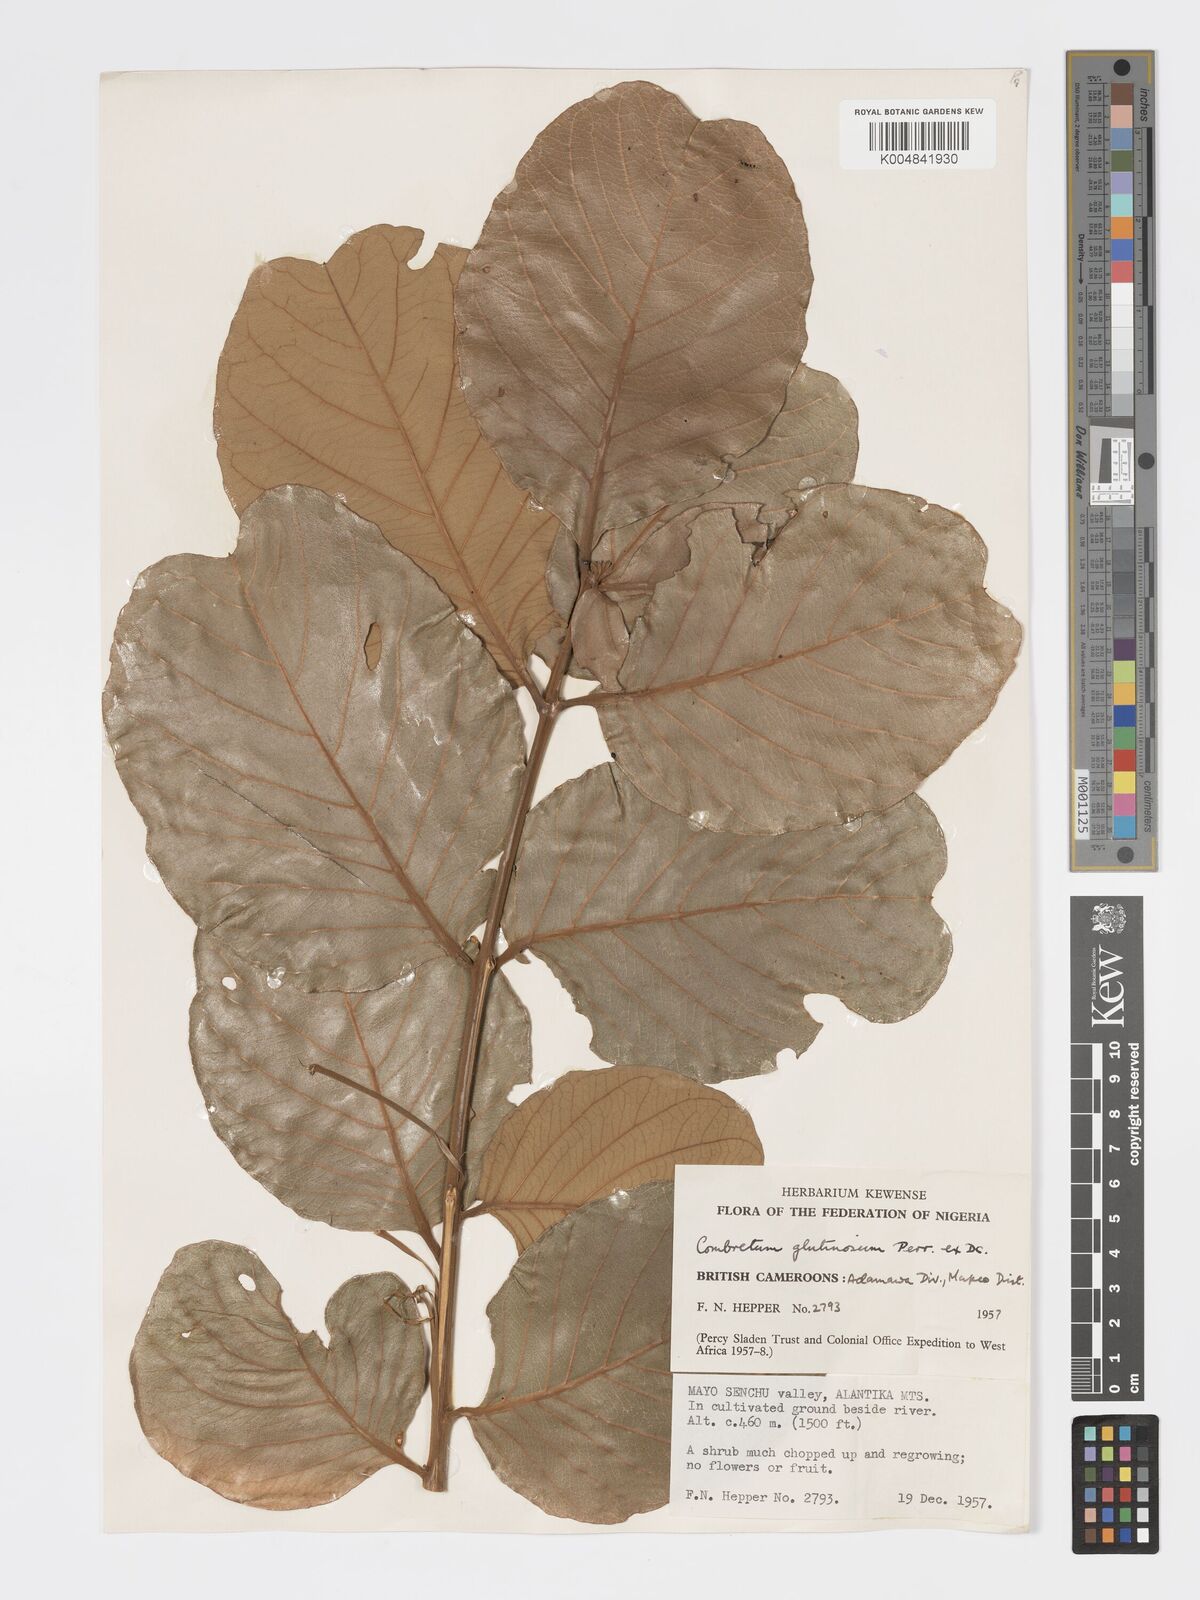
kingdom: Plantae
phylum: Tracheophyta
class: Magnoliopsida
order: Myrtales
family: Combretaceae
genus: Combretum
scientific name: Combretum
